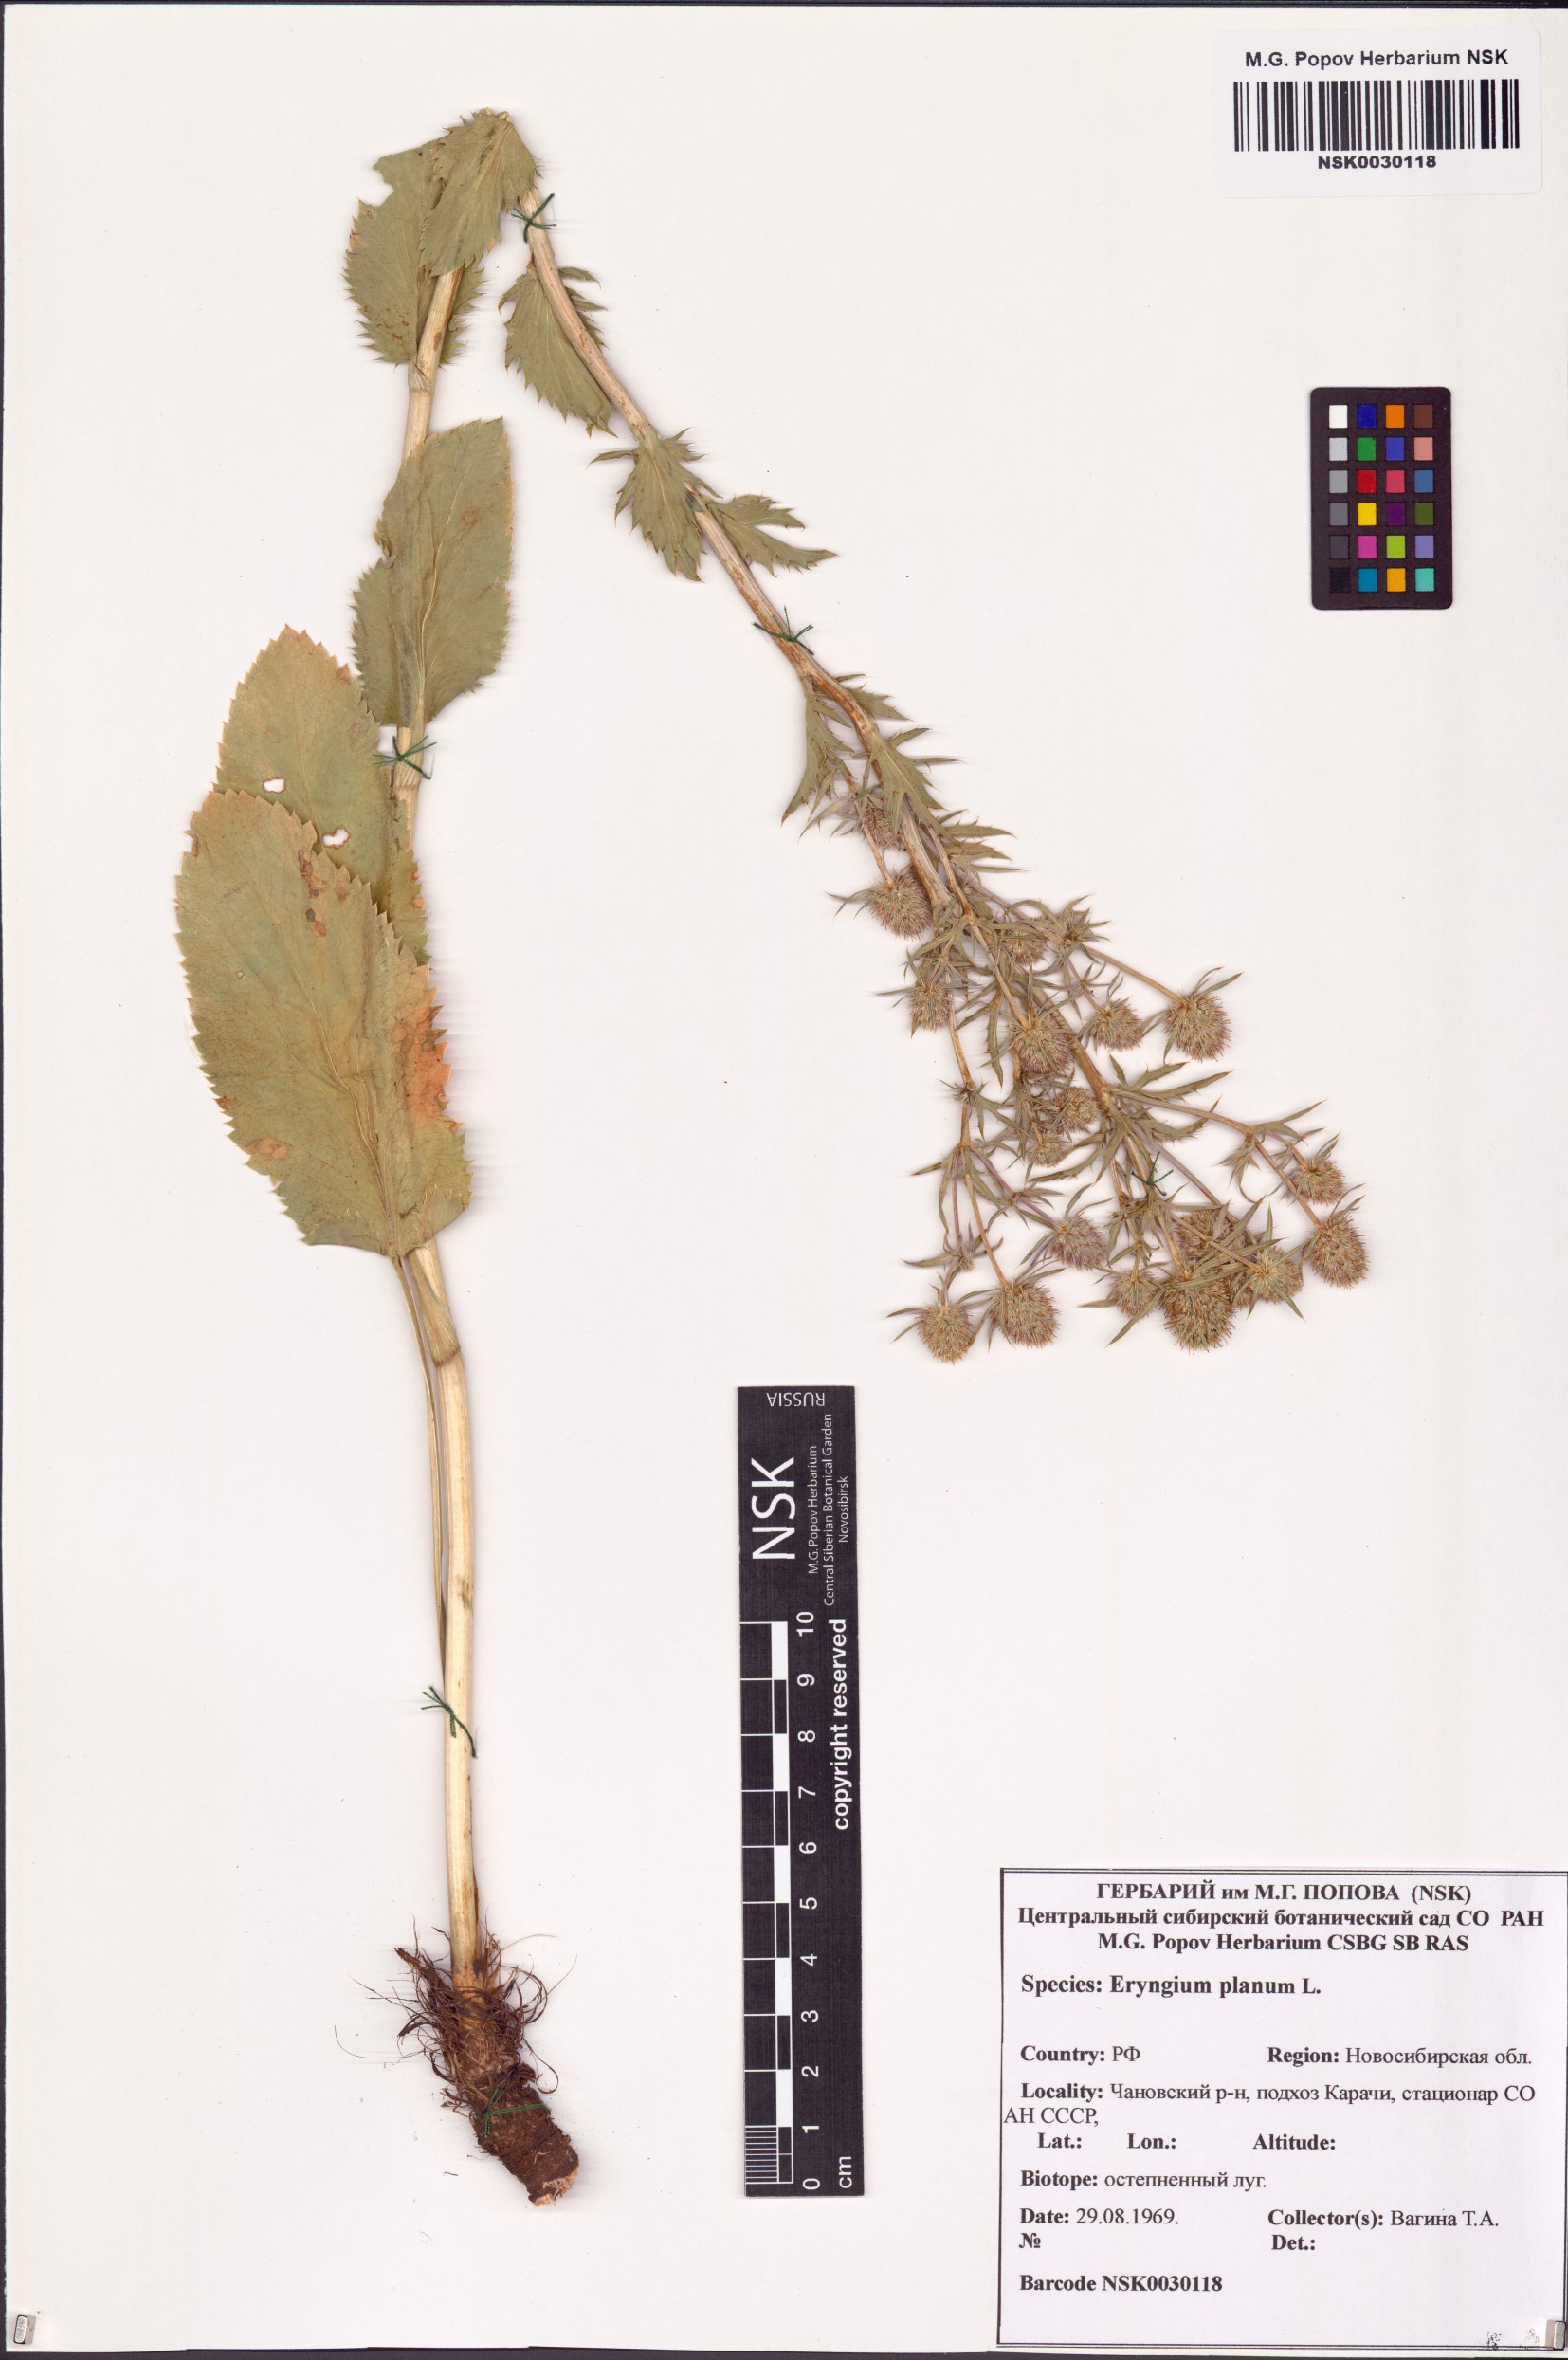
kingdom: Plantae
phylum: Tracheophyta
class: Magnoliopsida
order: Apiales
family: Apiaceae
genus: Eryngium
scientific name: Eryngium planum
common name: Blue eryngo
